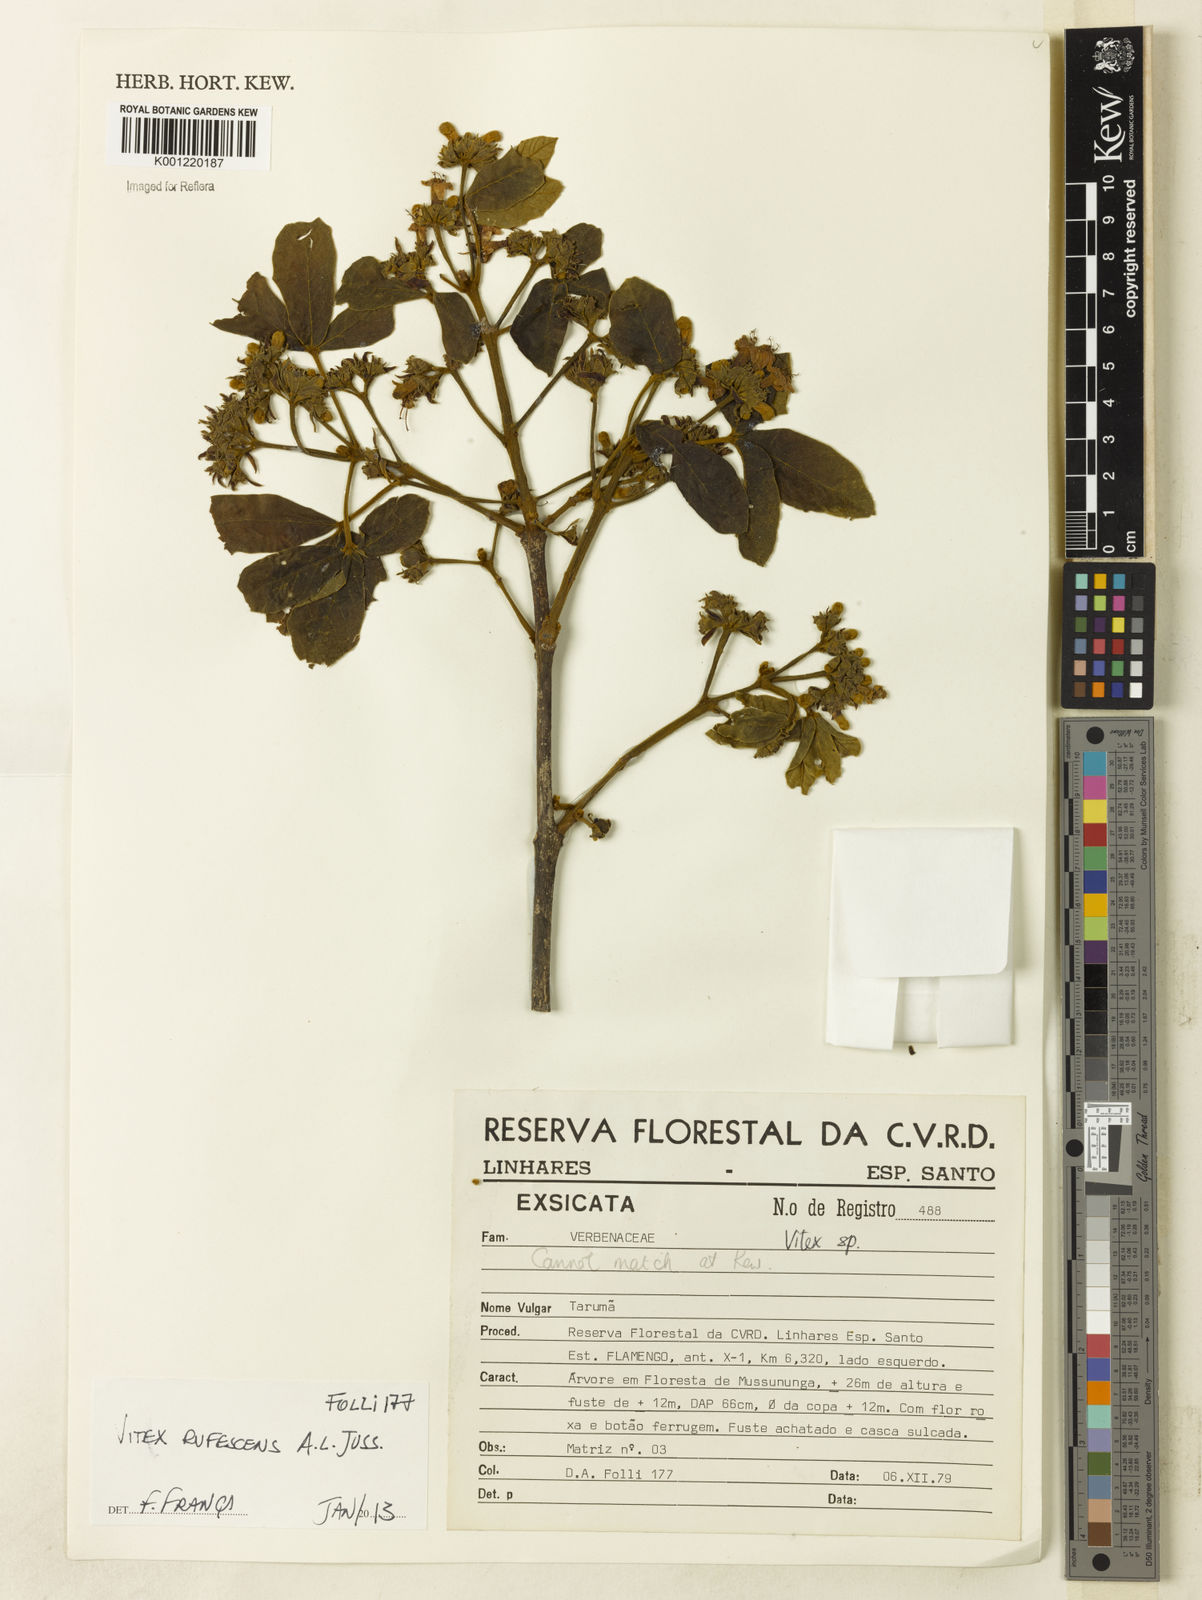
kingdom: Plantae
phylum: Tracheophyta
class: Magnoliopsida
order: Lamiales
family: Lamiaceae
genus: Vitex
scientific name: Vitex rufescens
